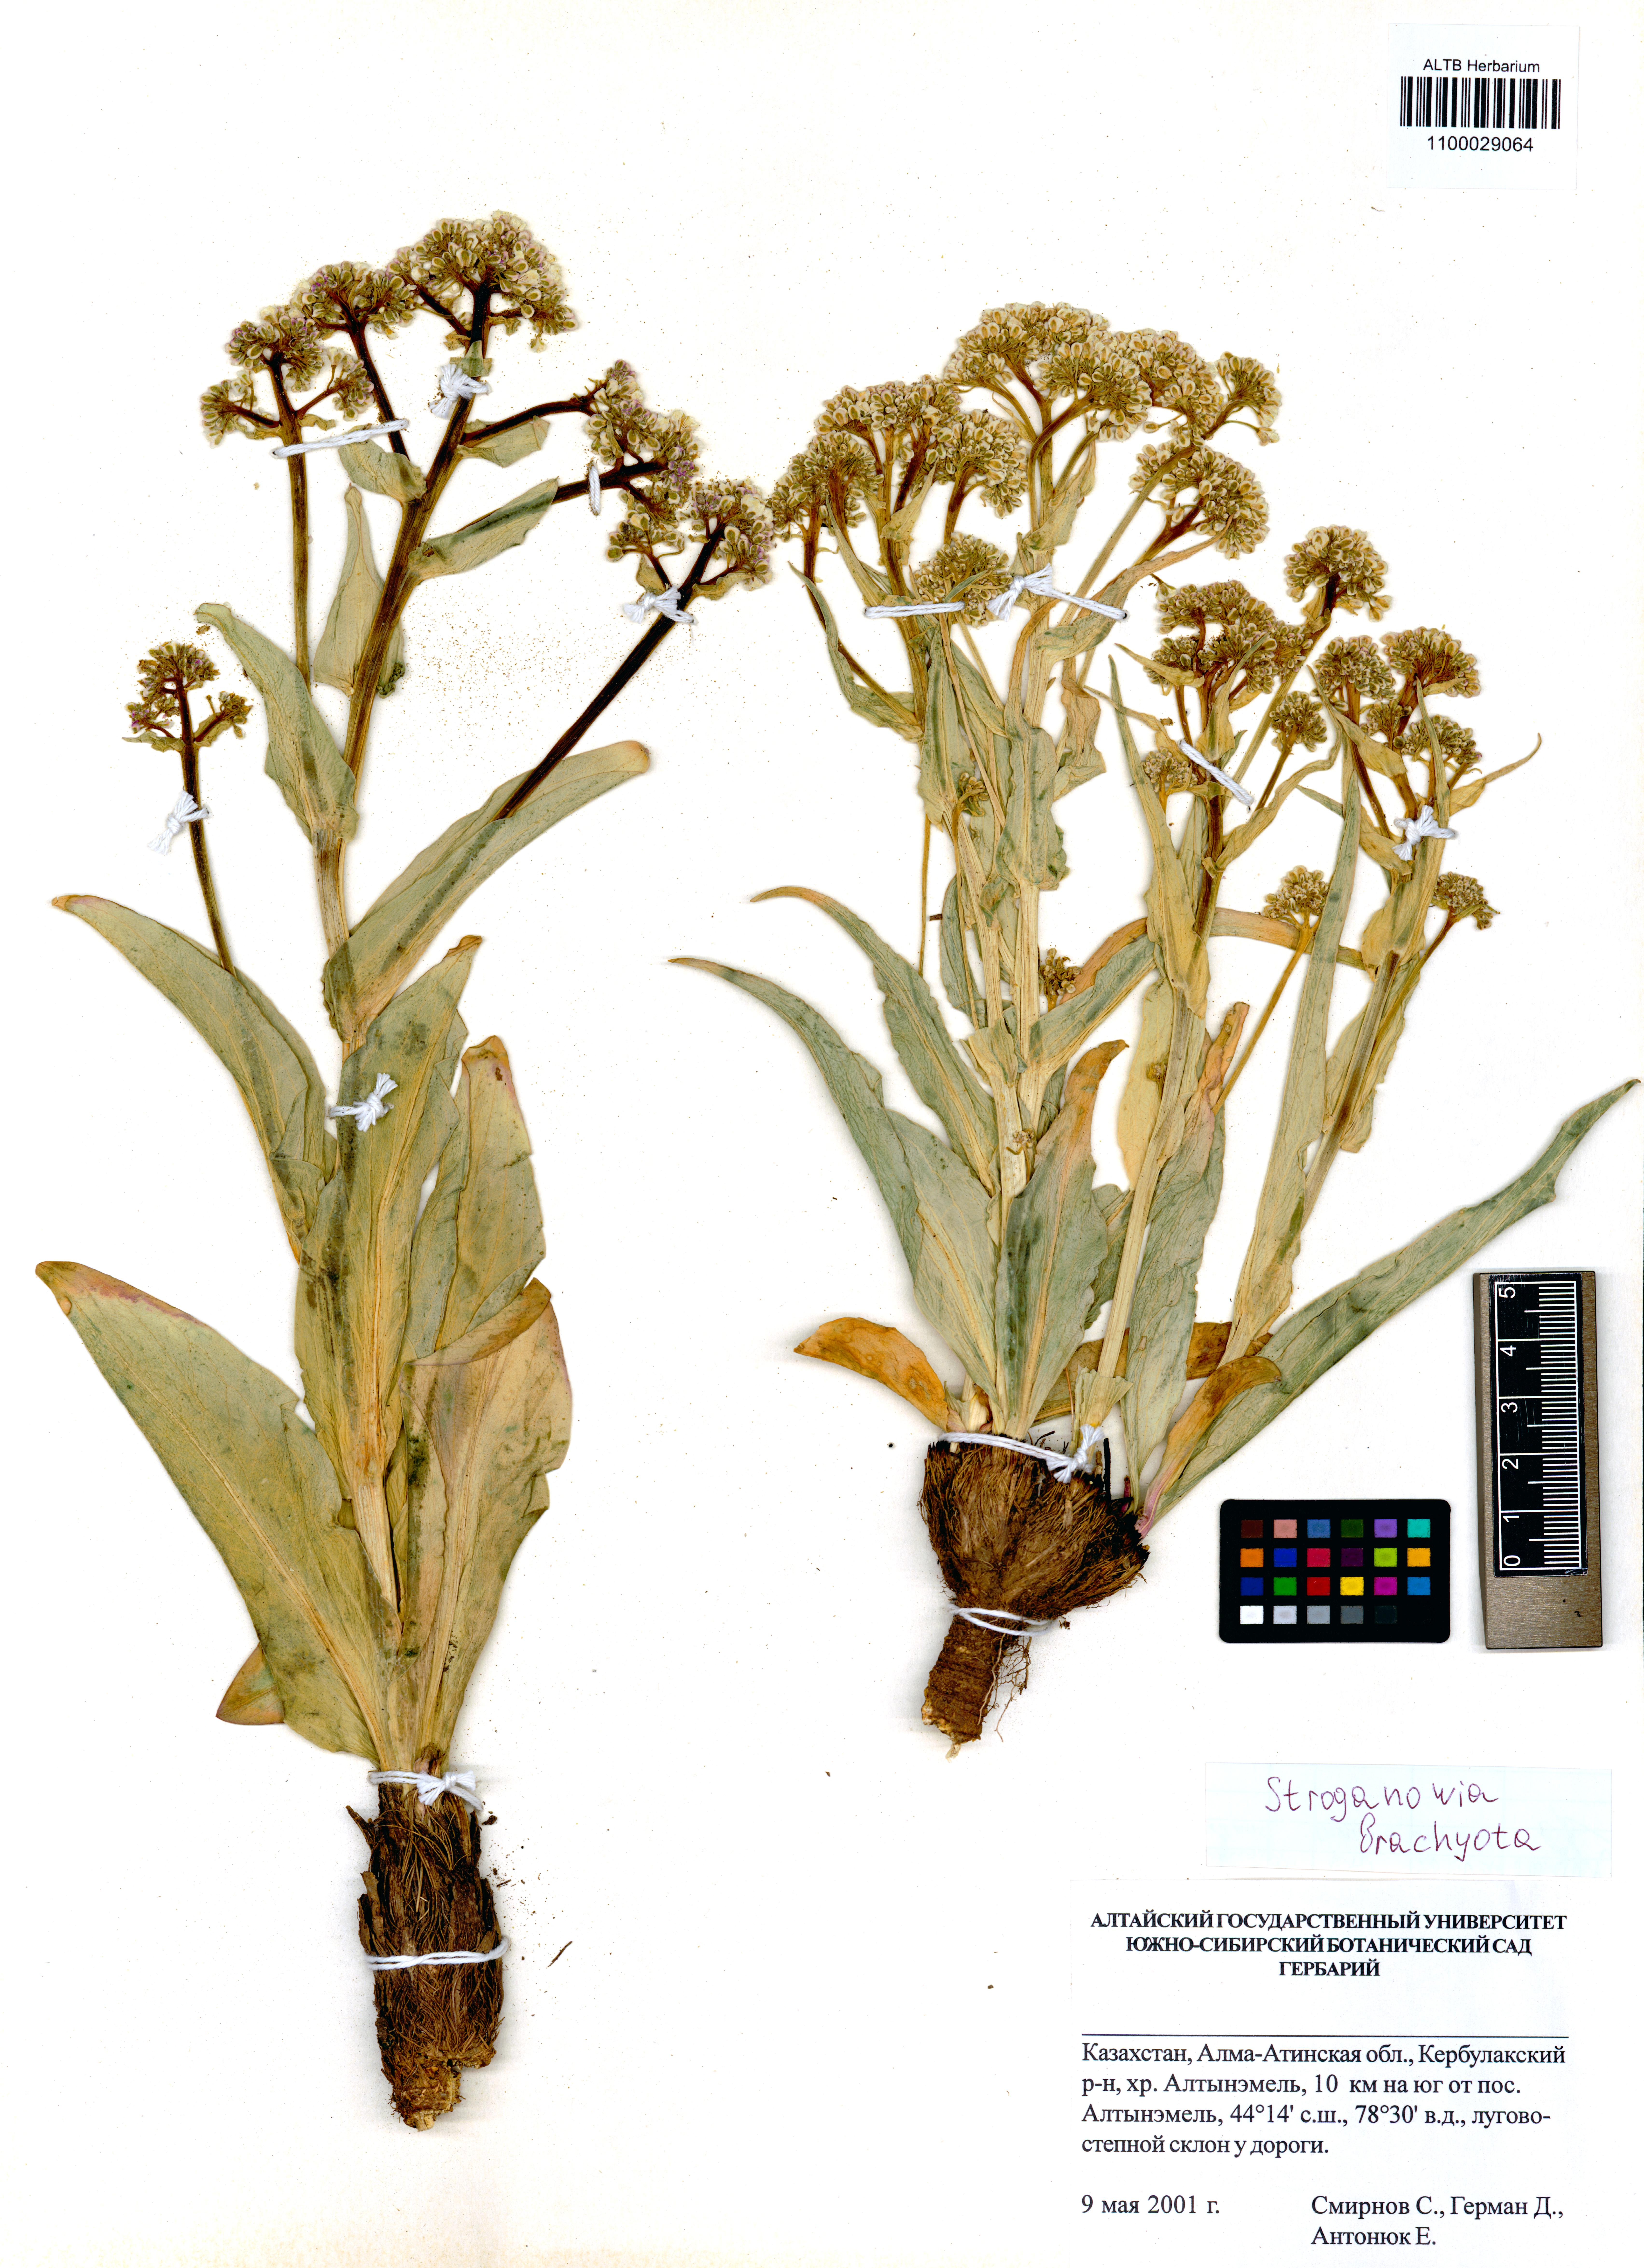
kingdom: Plantae
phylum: Tracheophyta
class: Magnoliopsida
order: Brassicales
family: Brassicaceae
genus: Lepidium
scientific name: Lepidium brachyotum
